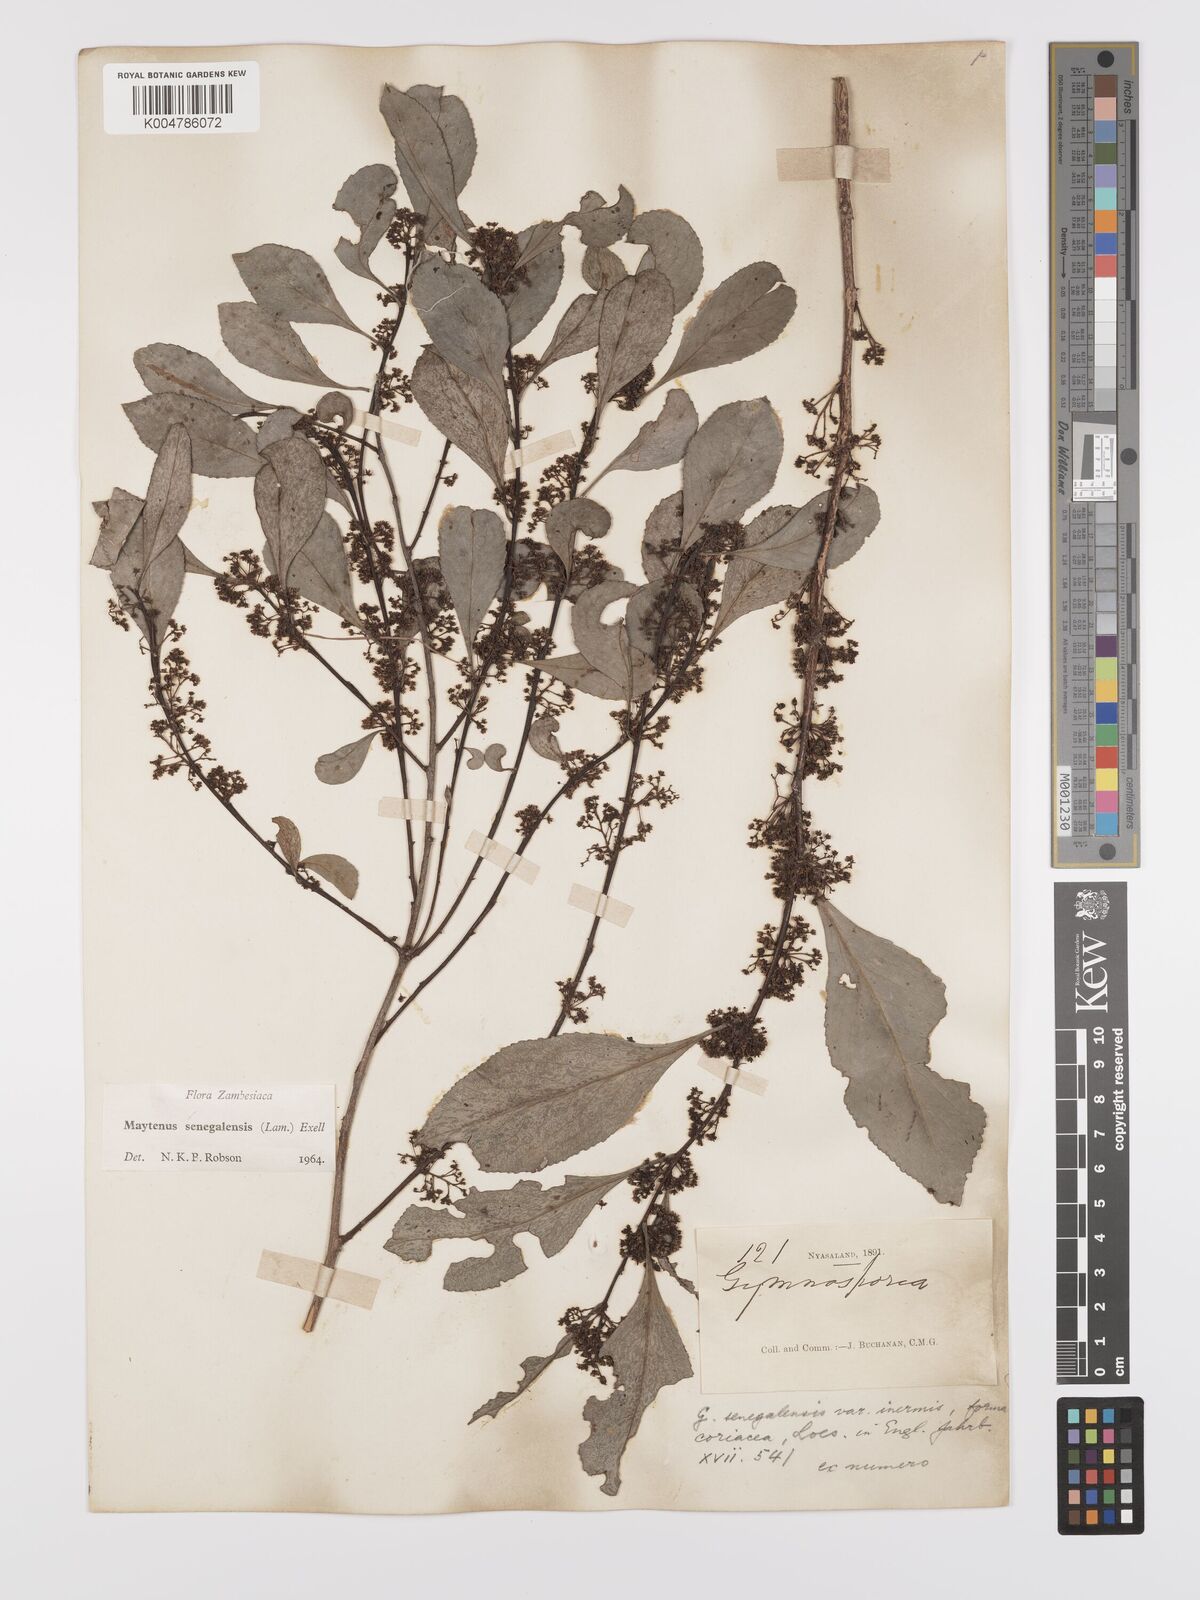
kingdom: Plantae
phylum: Tracheophyta
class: Magnoliopsida
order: Celastrales
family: Celastraceae
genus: Gymnosporia
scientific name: Gymnosporia senegalensis
